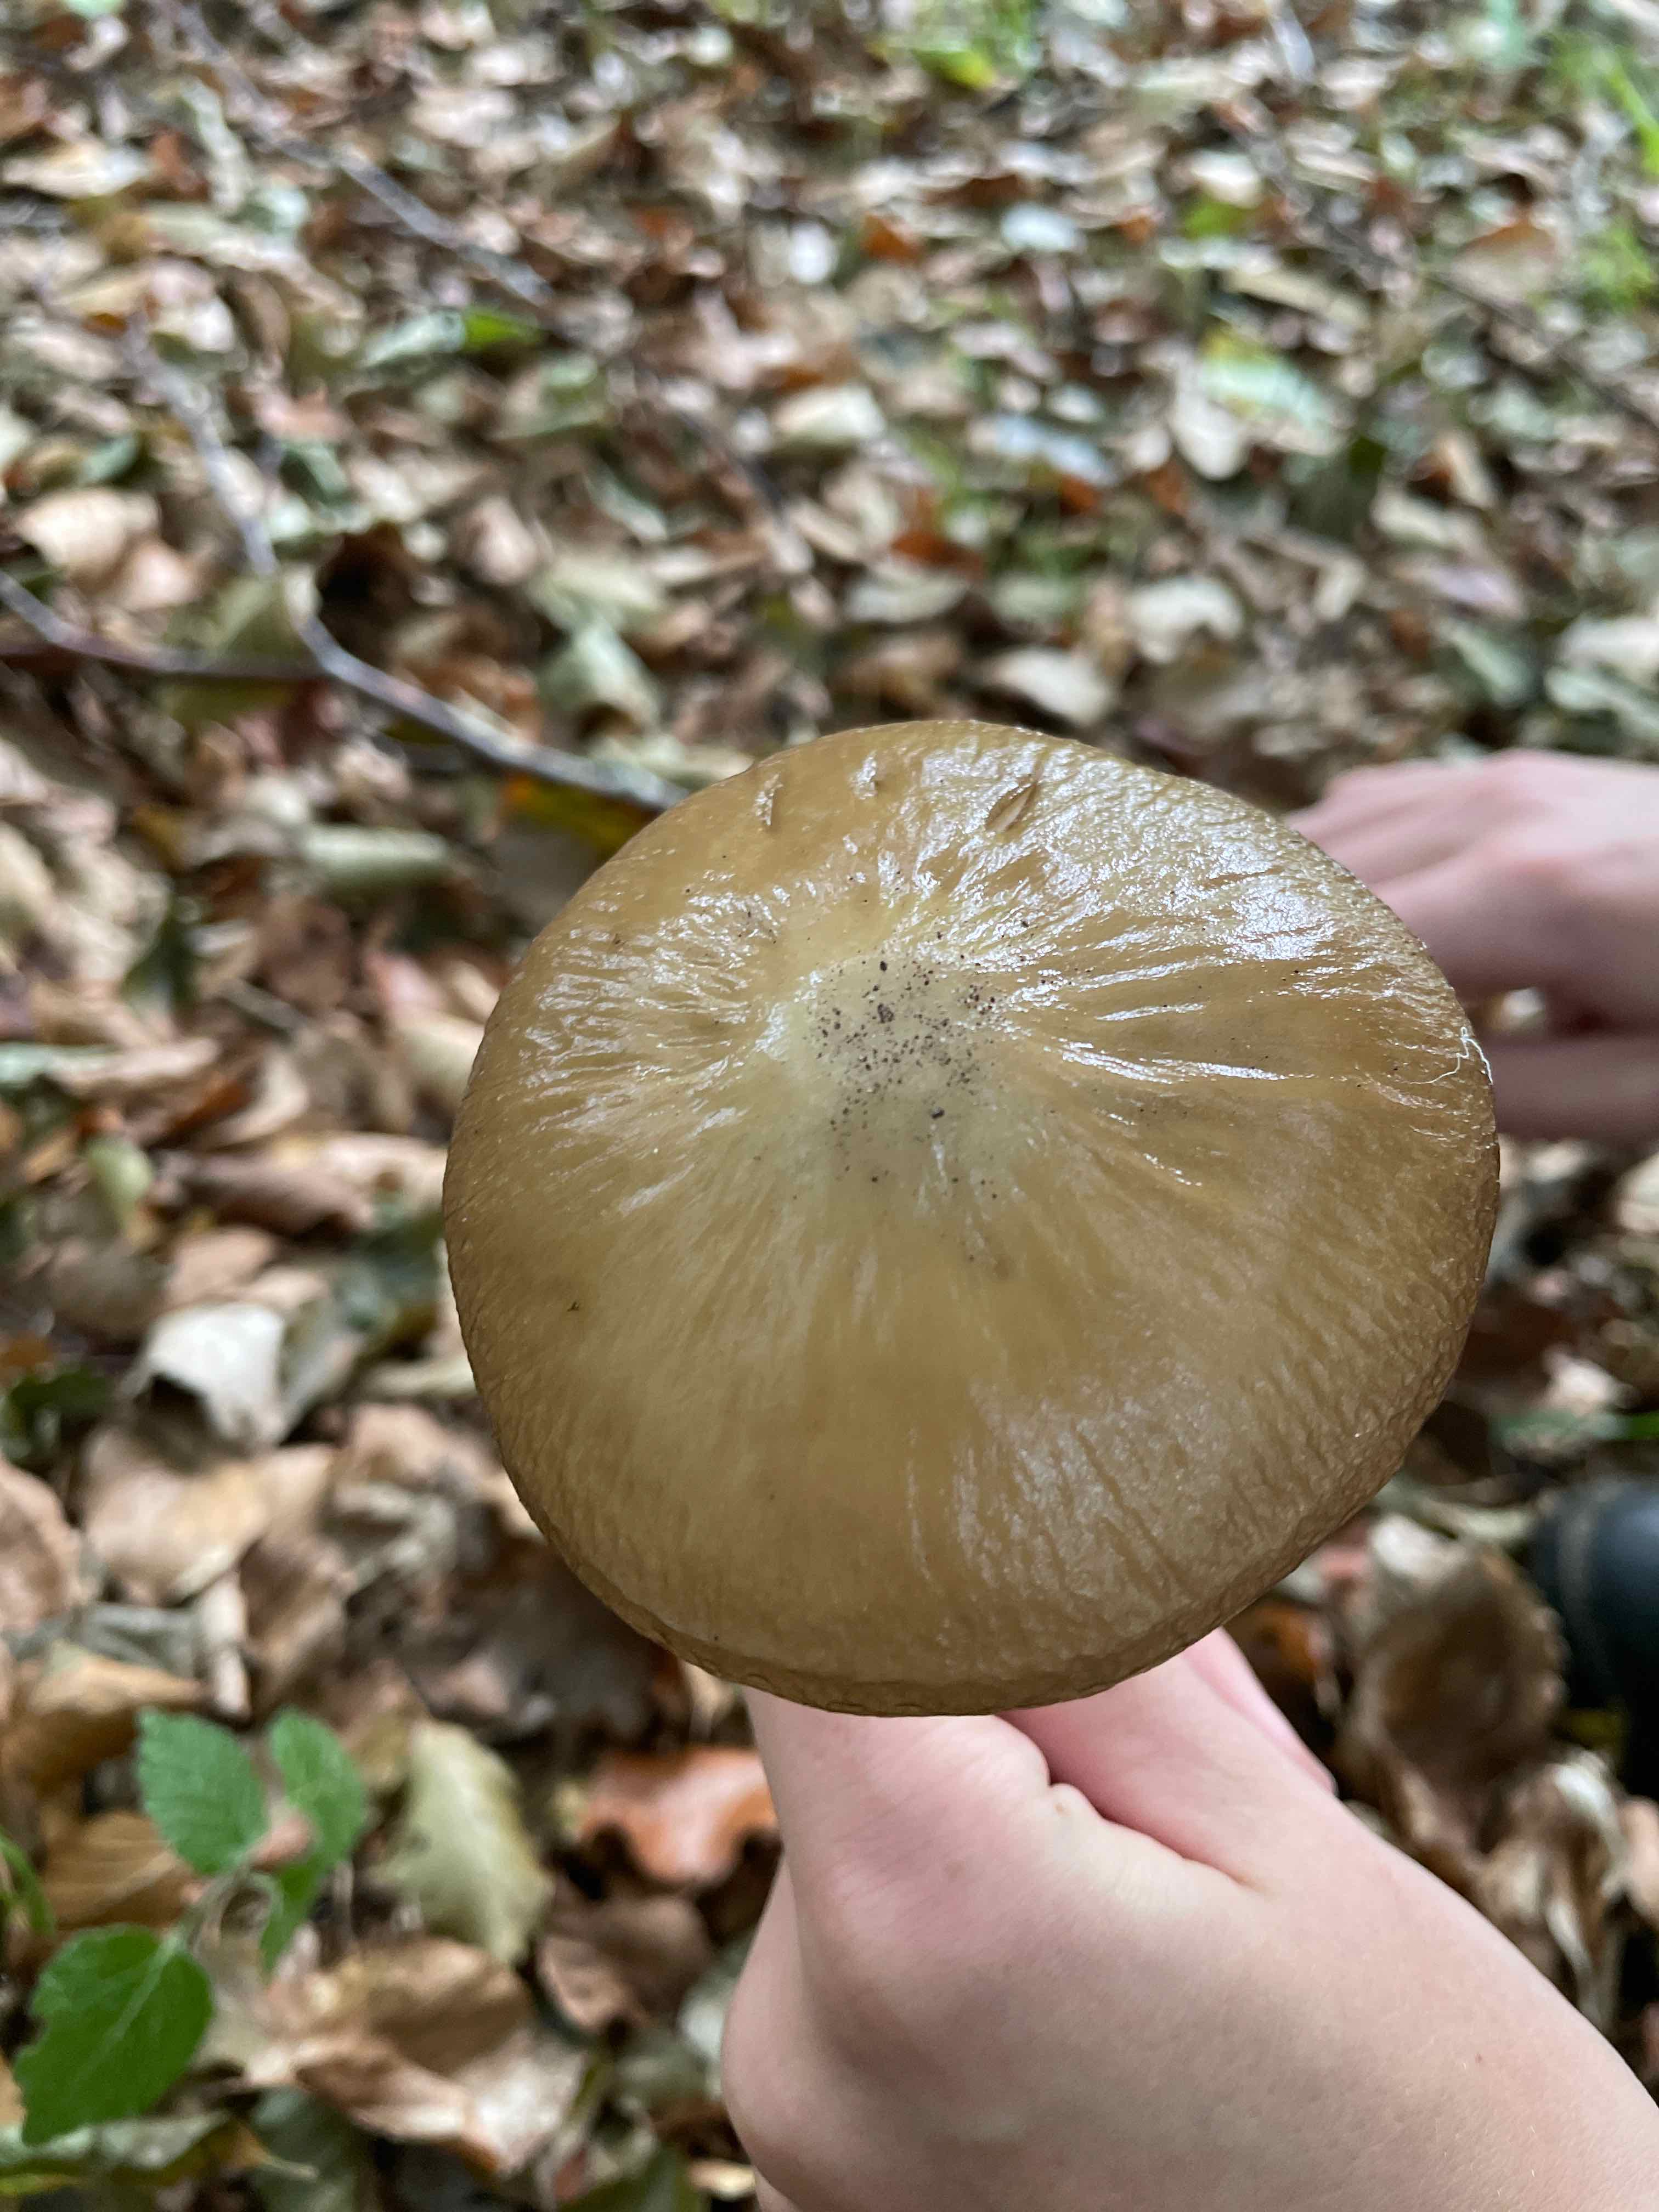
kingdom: Fungi
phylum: Basidiomycota
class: Agaricomycetes
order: Agaricales
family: Physalacriaceae
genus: Hymenopellis
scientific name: Hymenopellis radicata
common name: almindelig pælerodshat
